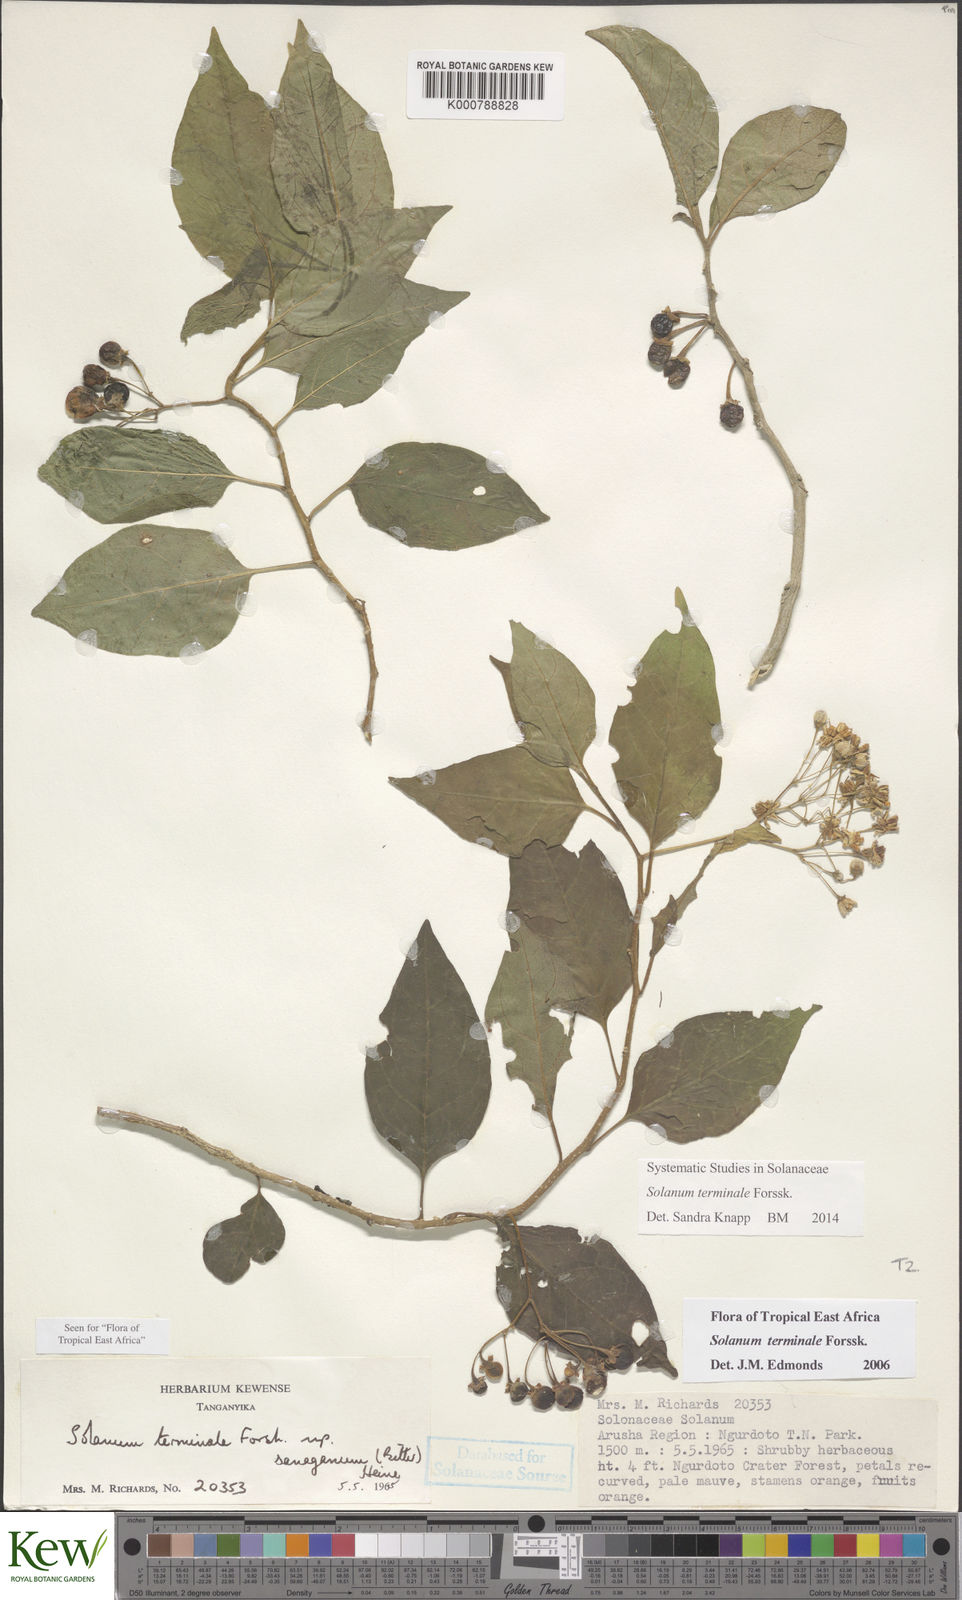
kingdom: Plantae
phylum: Tracheophyta
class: Magnoliopsida
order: Solanales
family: Solanaceae
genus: Solanum
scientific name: Solanum terminale
